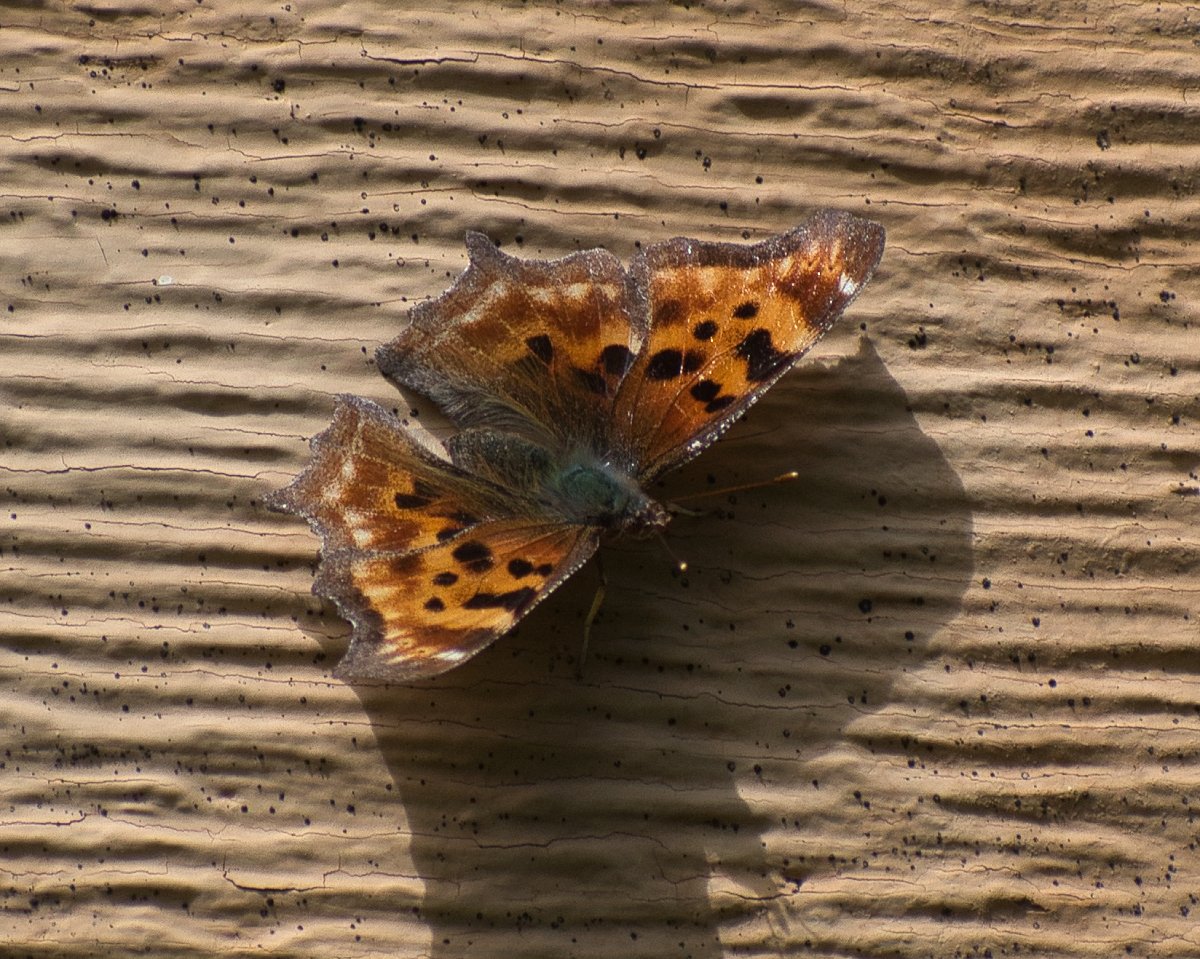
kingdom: Animalia
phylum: Arthropoda
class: Insecta
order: Lepidoptera
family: Nymphalidae
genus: Polygonia
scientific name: Polygonia satyrus
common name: Satyr Comma
